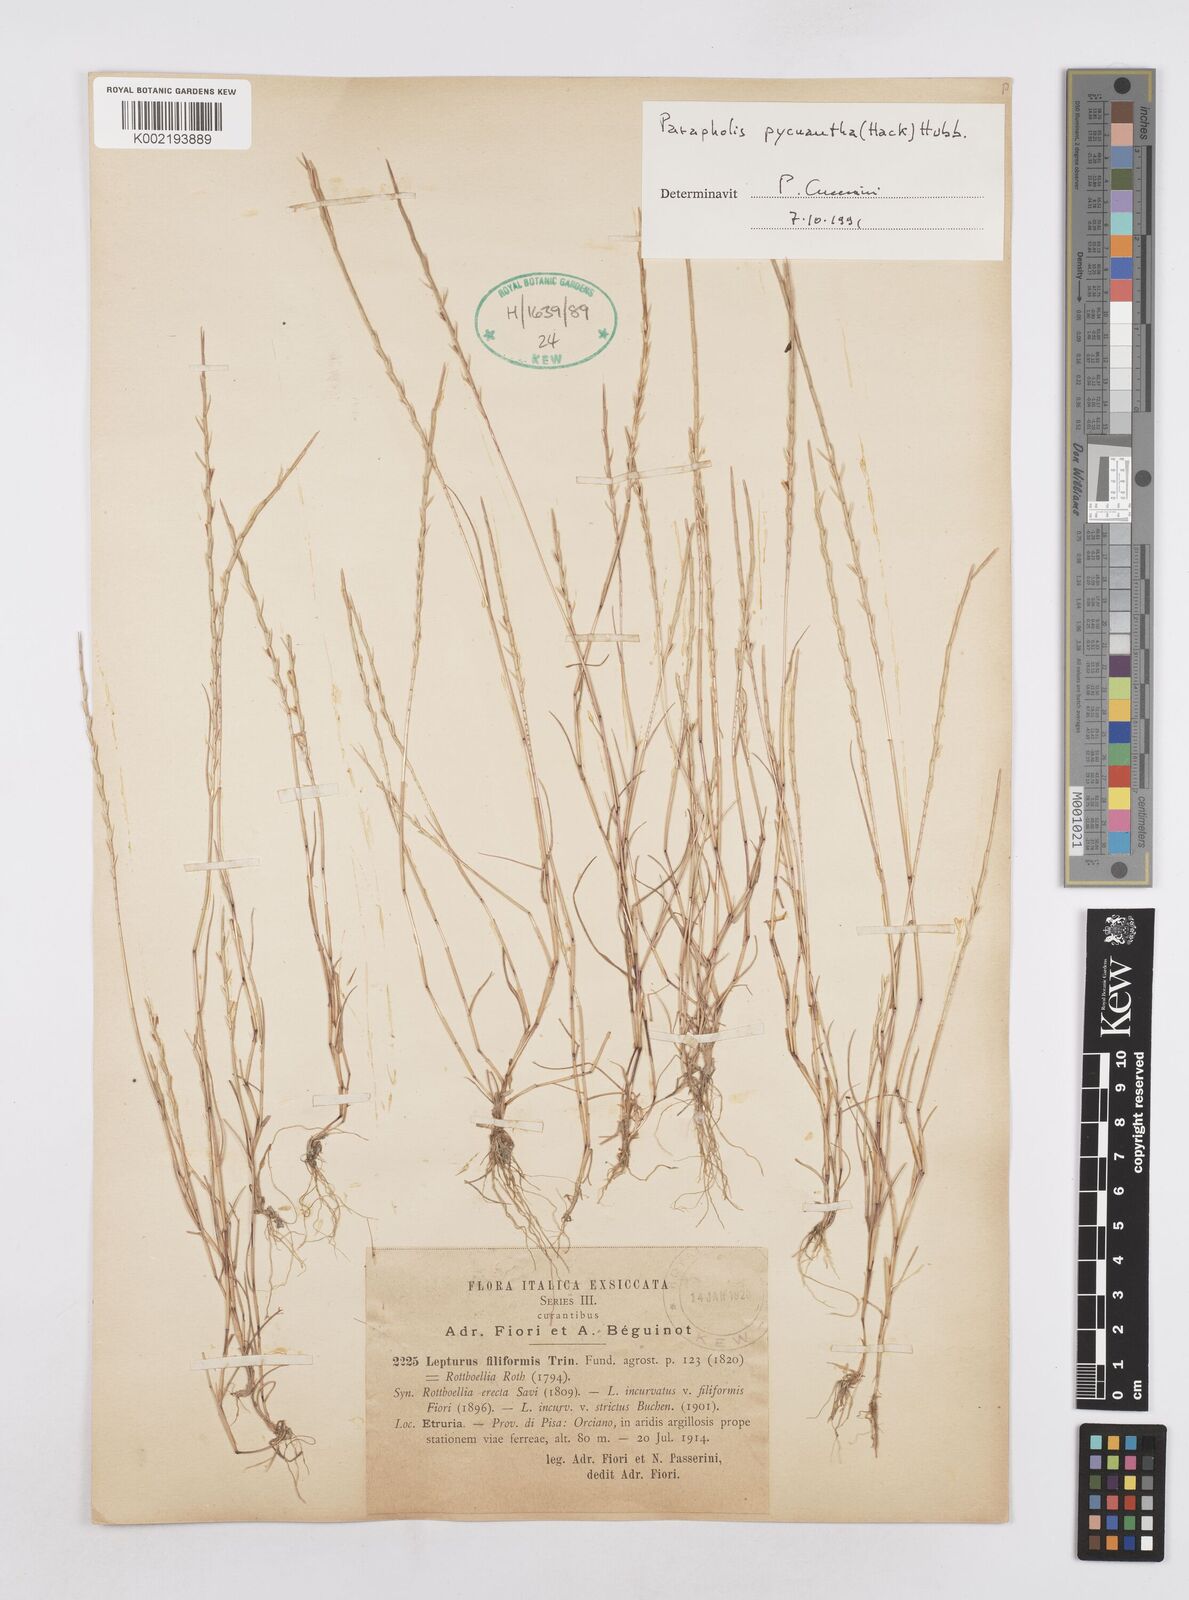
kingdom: Plantae
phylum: Tracheophyta
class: Liliopsida
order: Poales
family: Poaceae
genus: Parapholis
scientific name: Parapholis pycnantha
